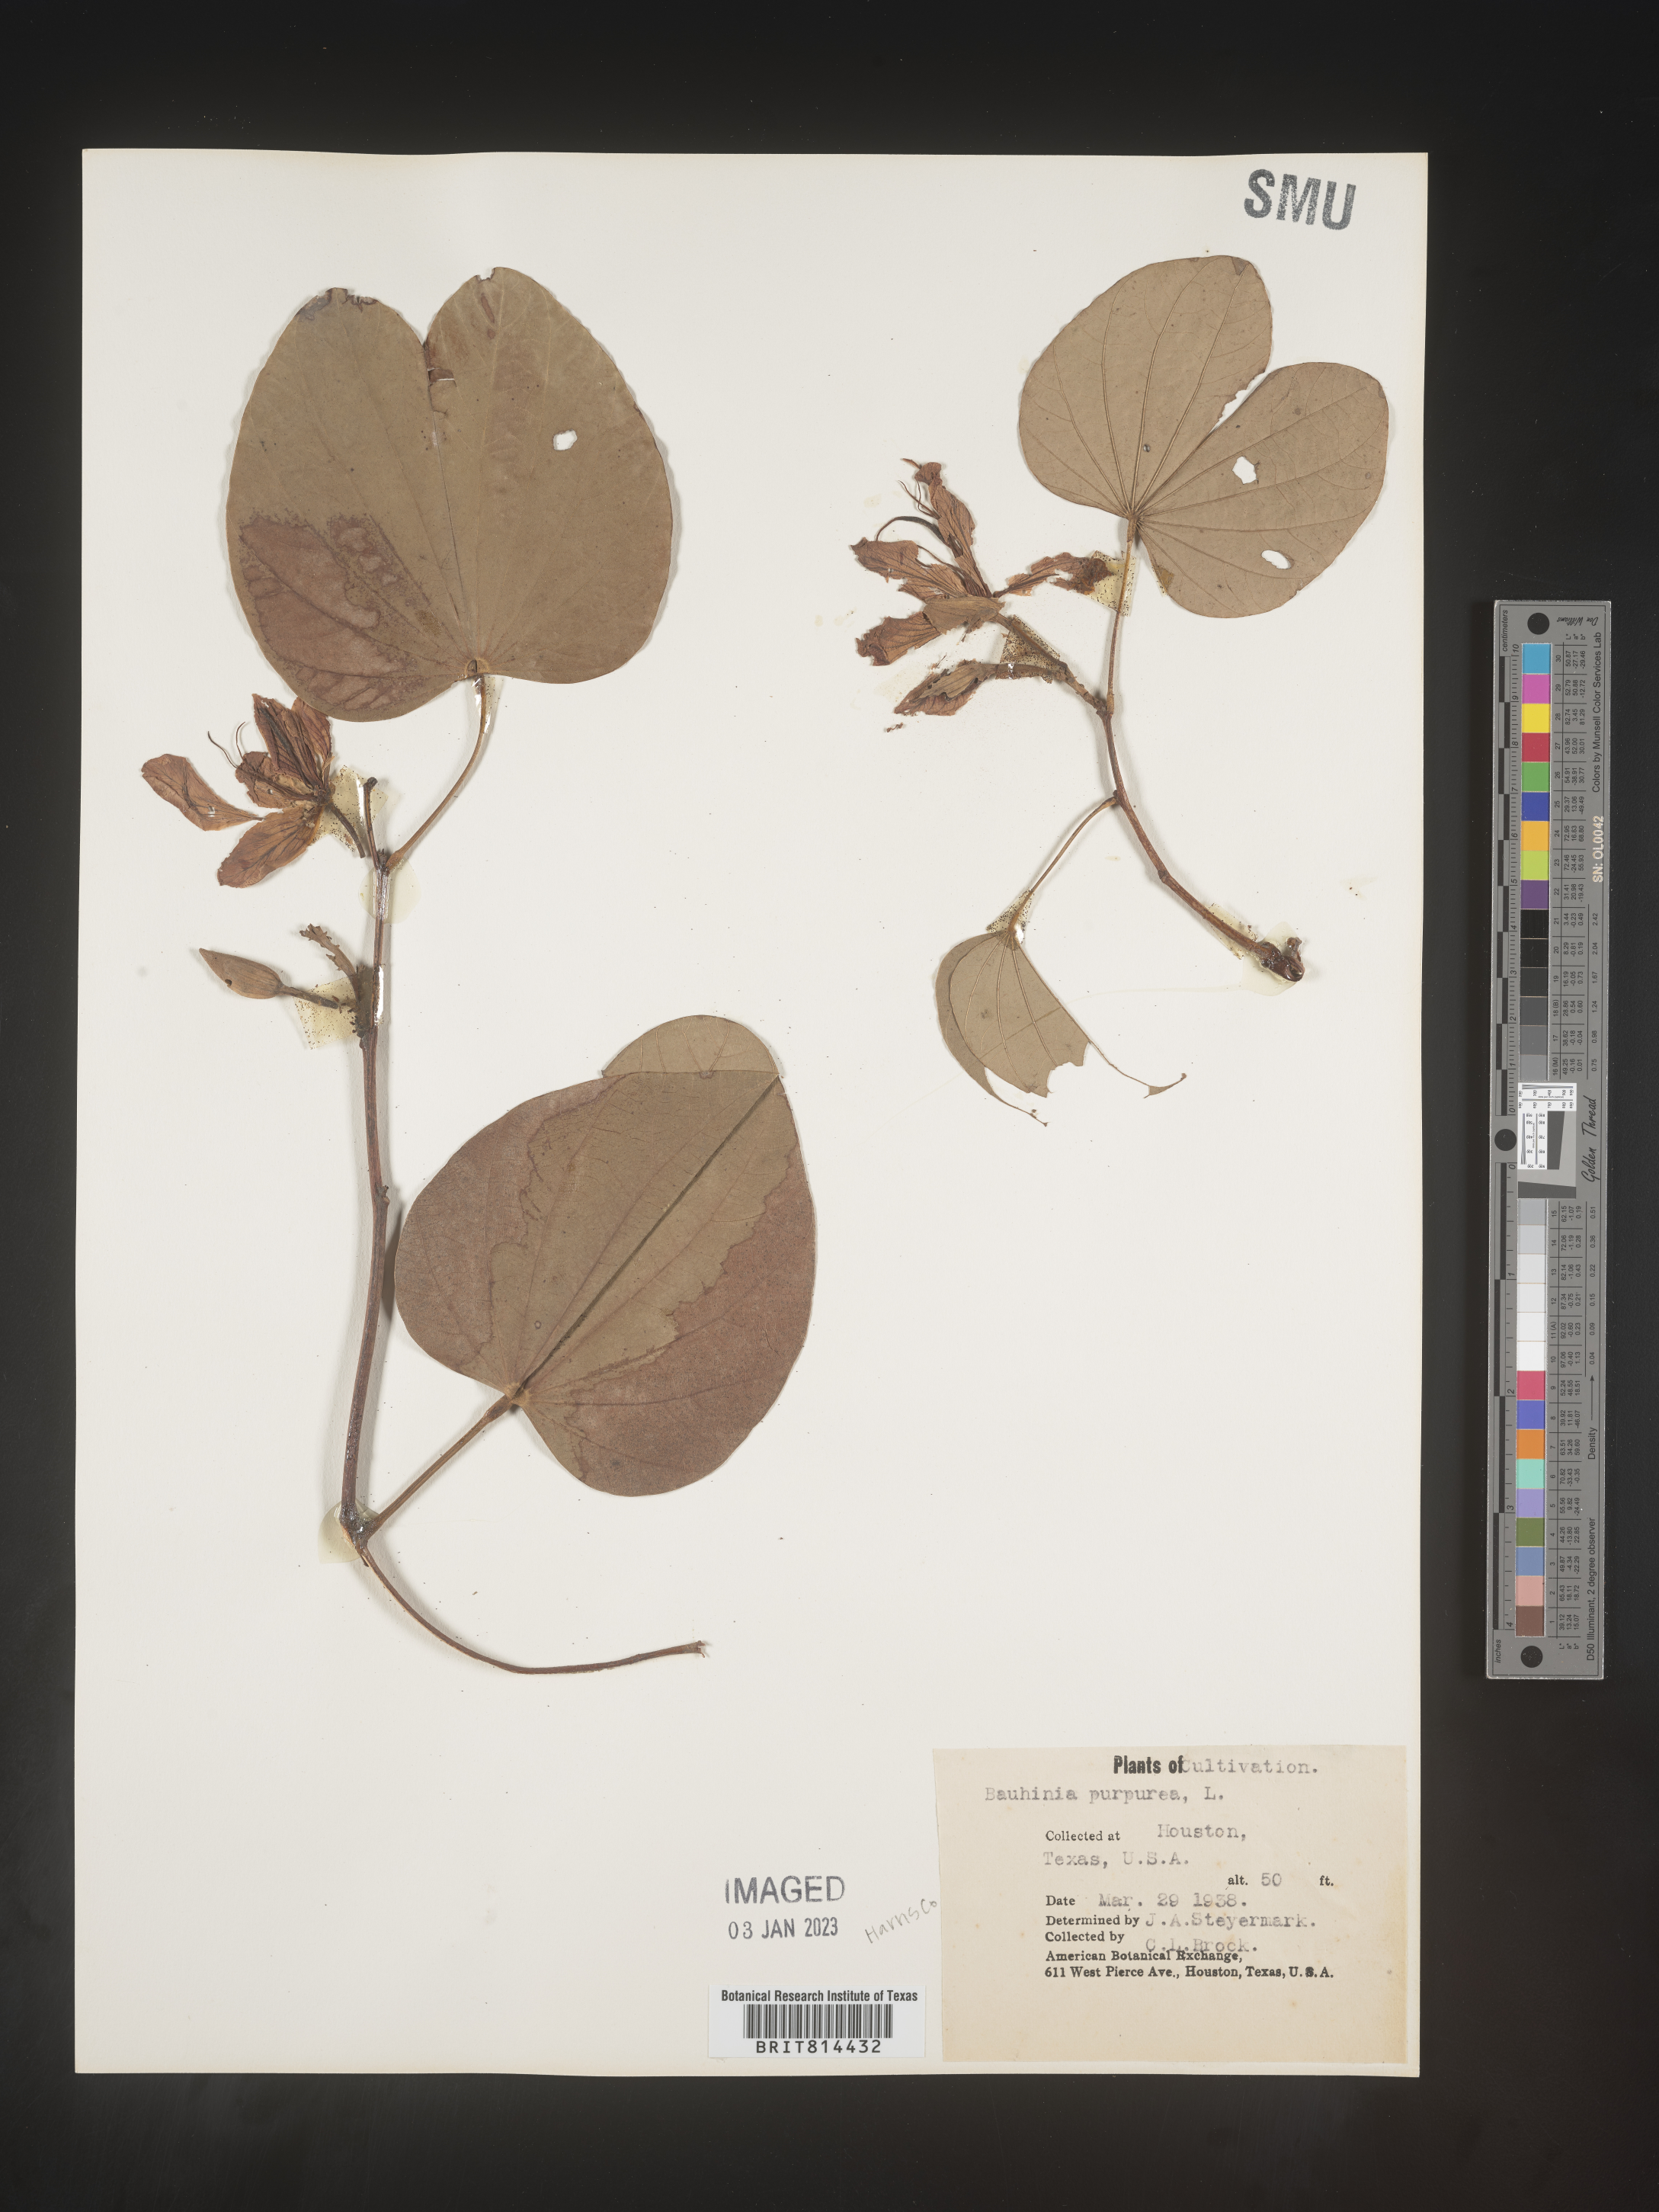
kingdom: Plantae
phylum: Tracheophyta
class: Magnoliopsida
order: Fabales
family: Fabaceae
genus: Bauhinia
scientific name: Bauhinia
